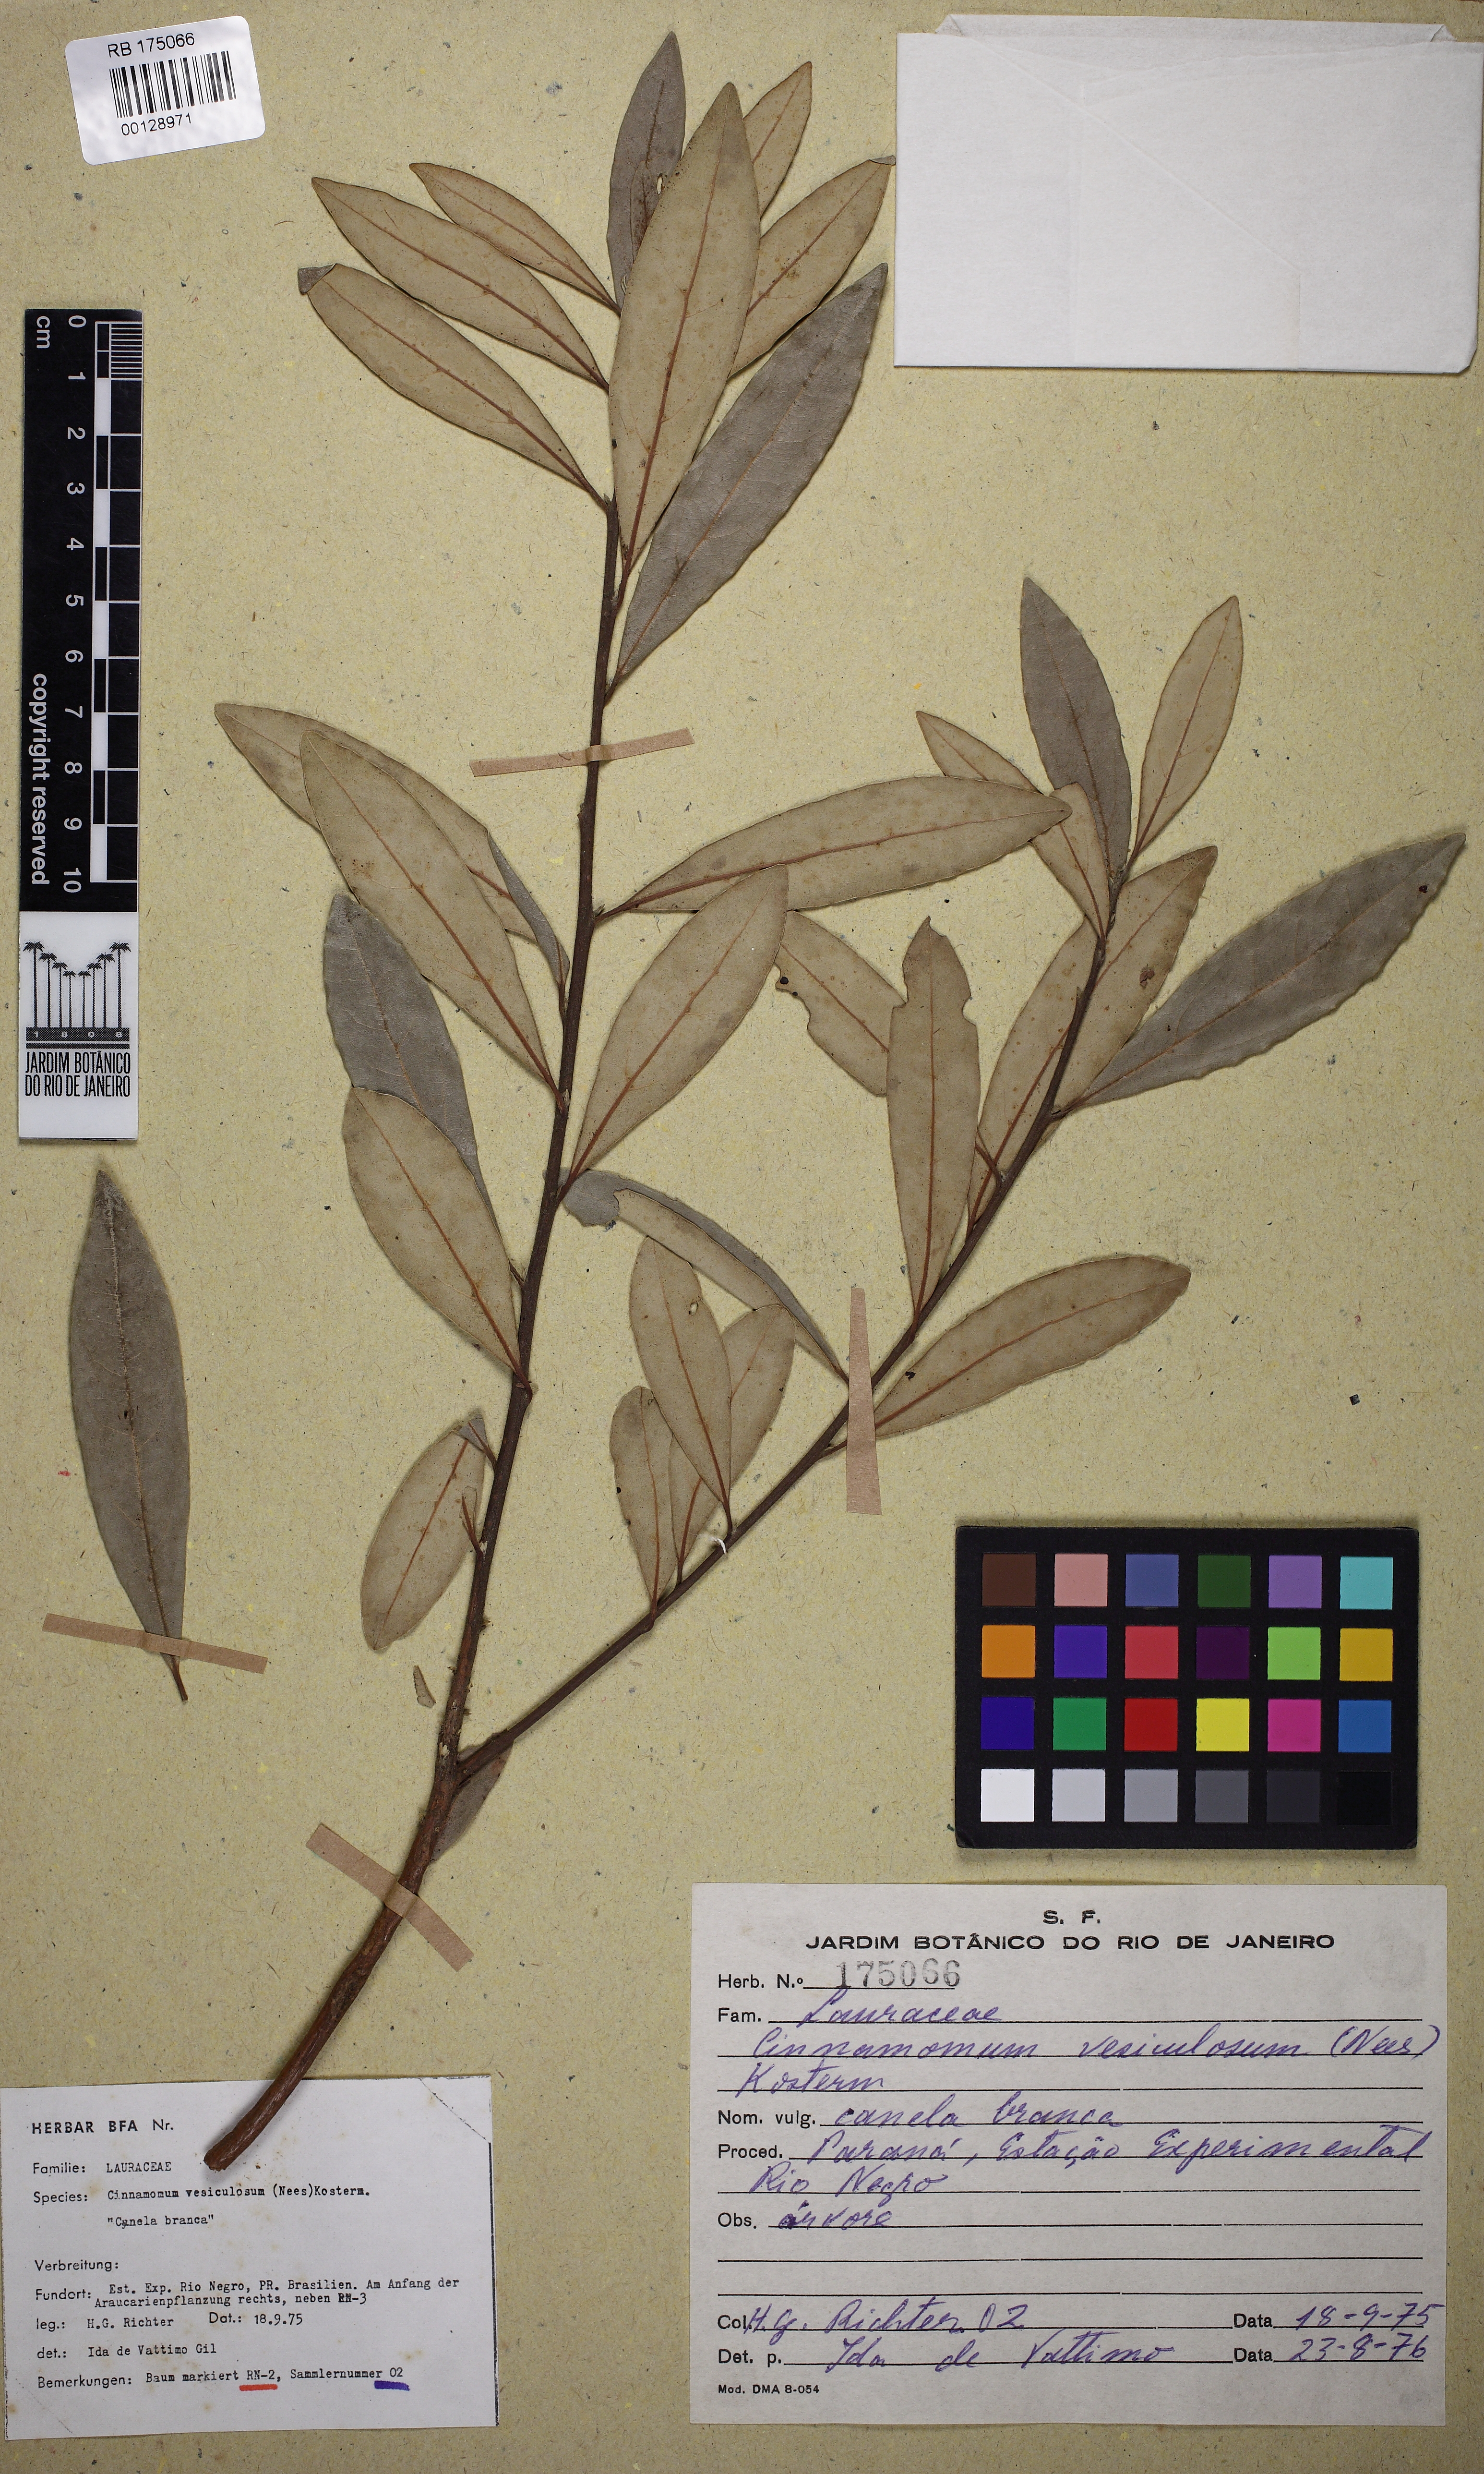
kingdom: Plantae
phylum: Tracheophyta
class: Magnoliopsida
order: Laurales
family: Lauraceae
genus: Aiouea
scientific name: Aiouea amoena
